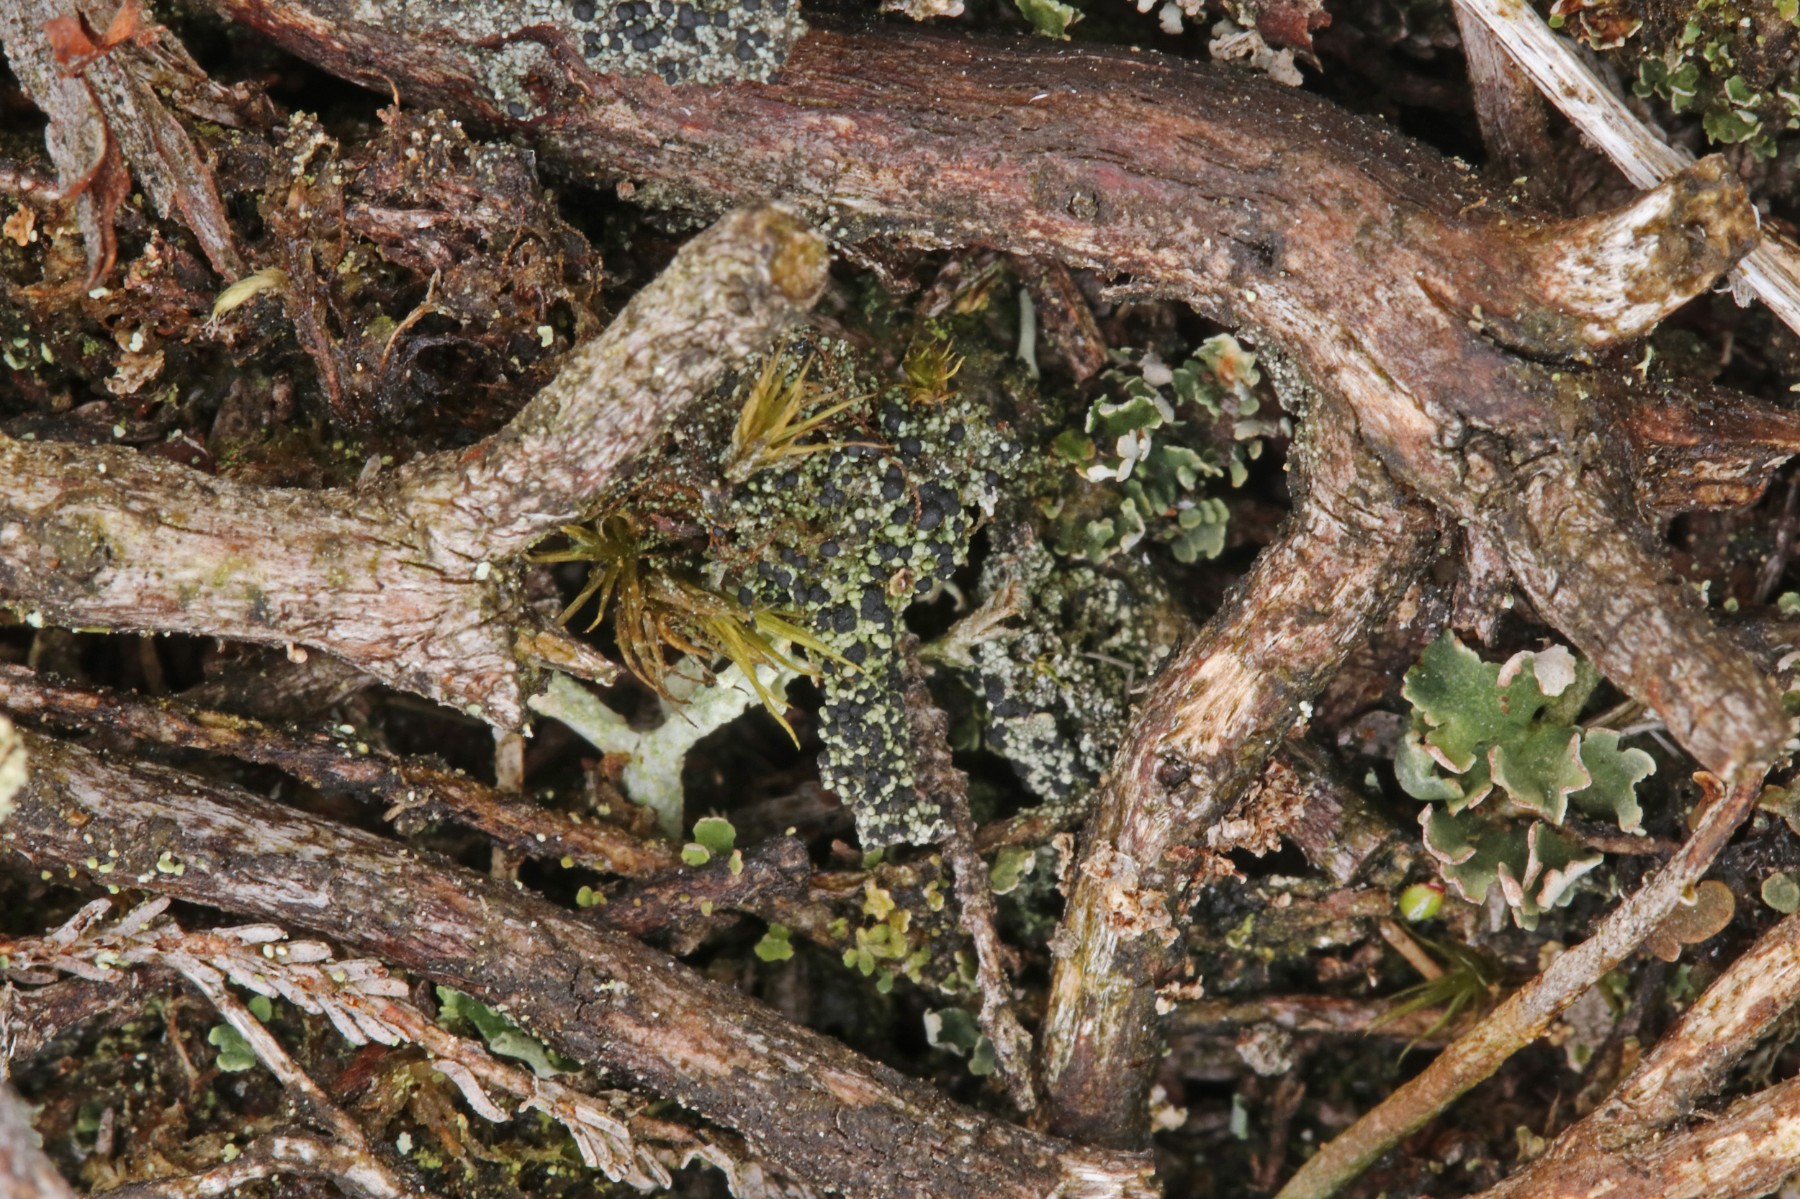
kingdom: Fungi
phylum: Ascomycota
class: Lecanoromycetes
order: Lecanorales
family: Byssolomataceae
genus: Micarea
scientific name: Micarea lignaria
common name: tørve-knaplav
